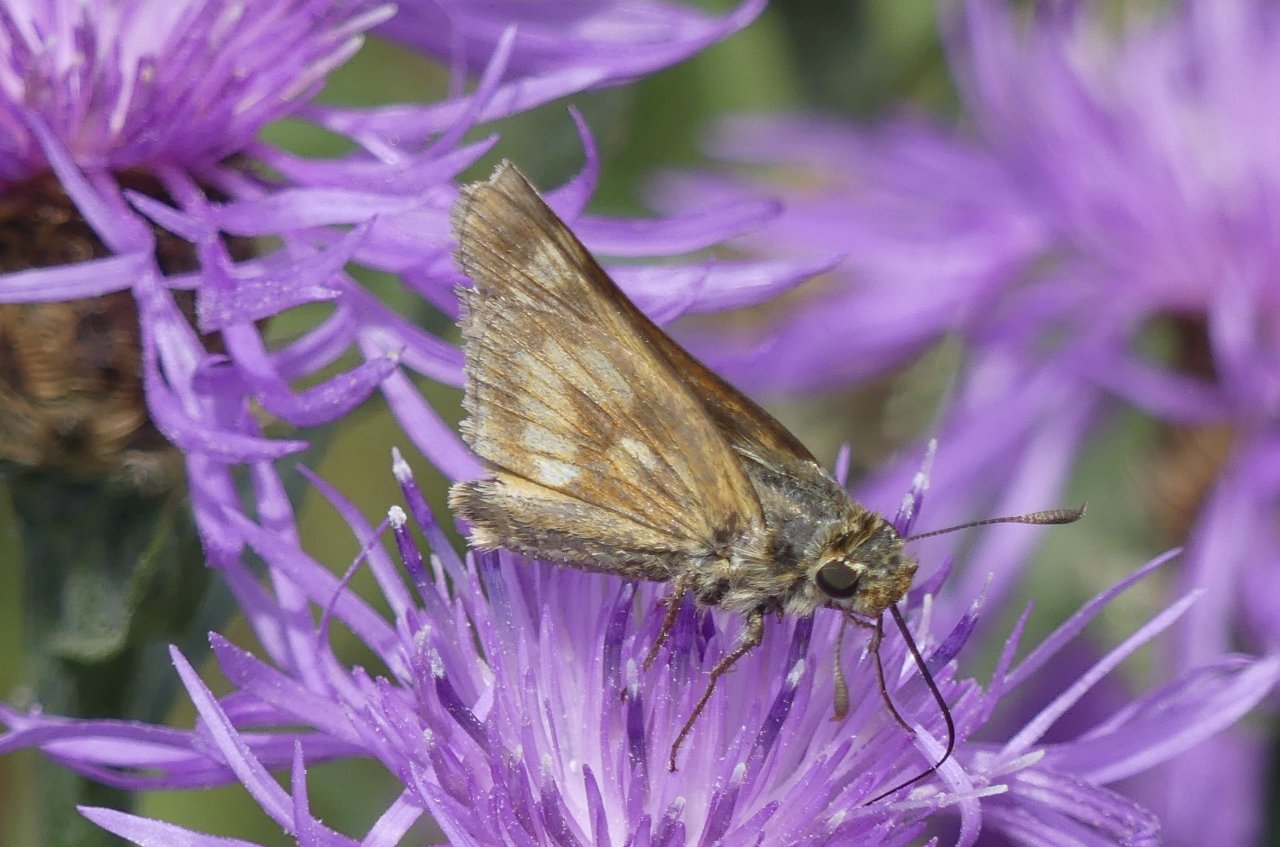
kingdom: Animalia
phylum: Arthropoda
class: Insecta
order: Lepidoptera
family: Hesperiidae
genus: Polites
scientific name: Polites
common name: Long Dash Skipper
